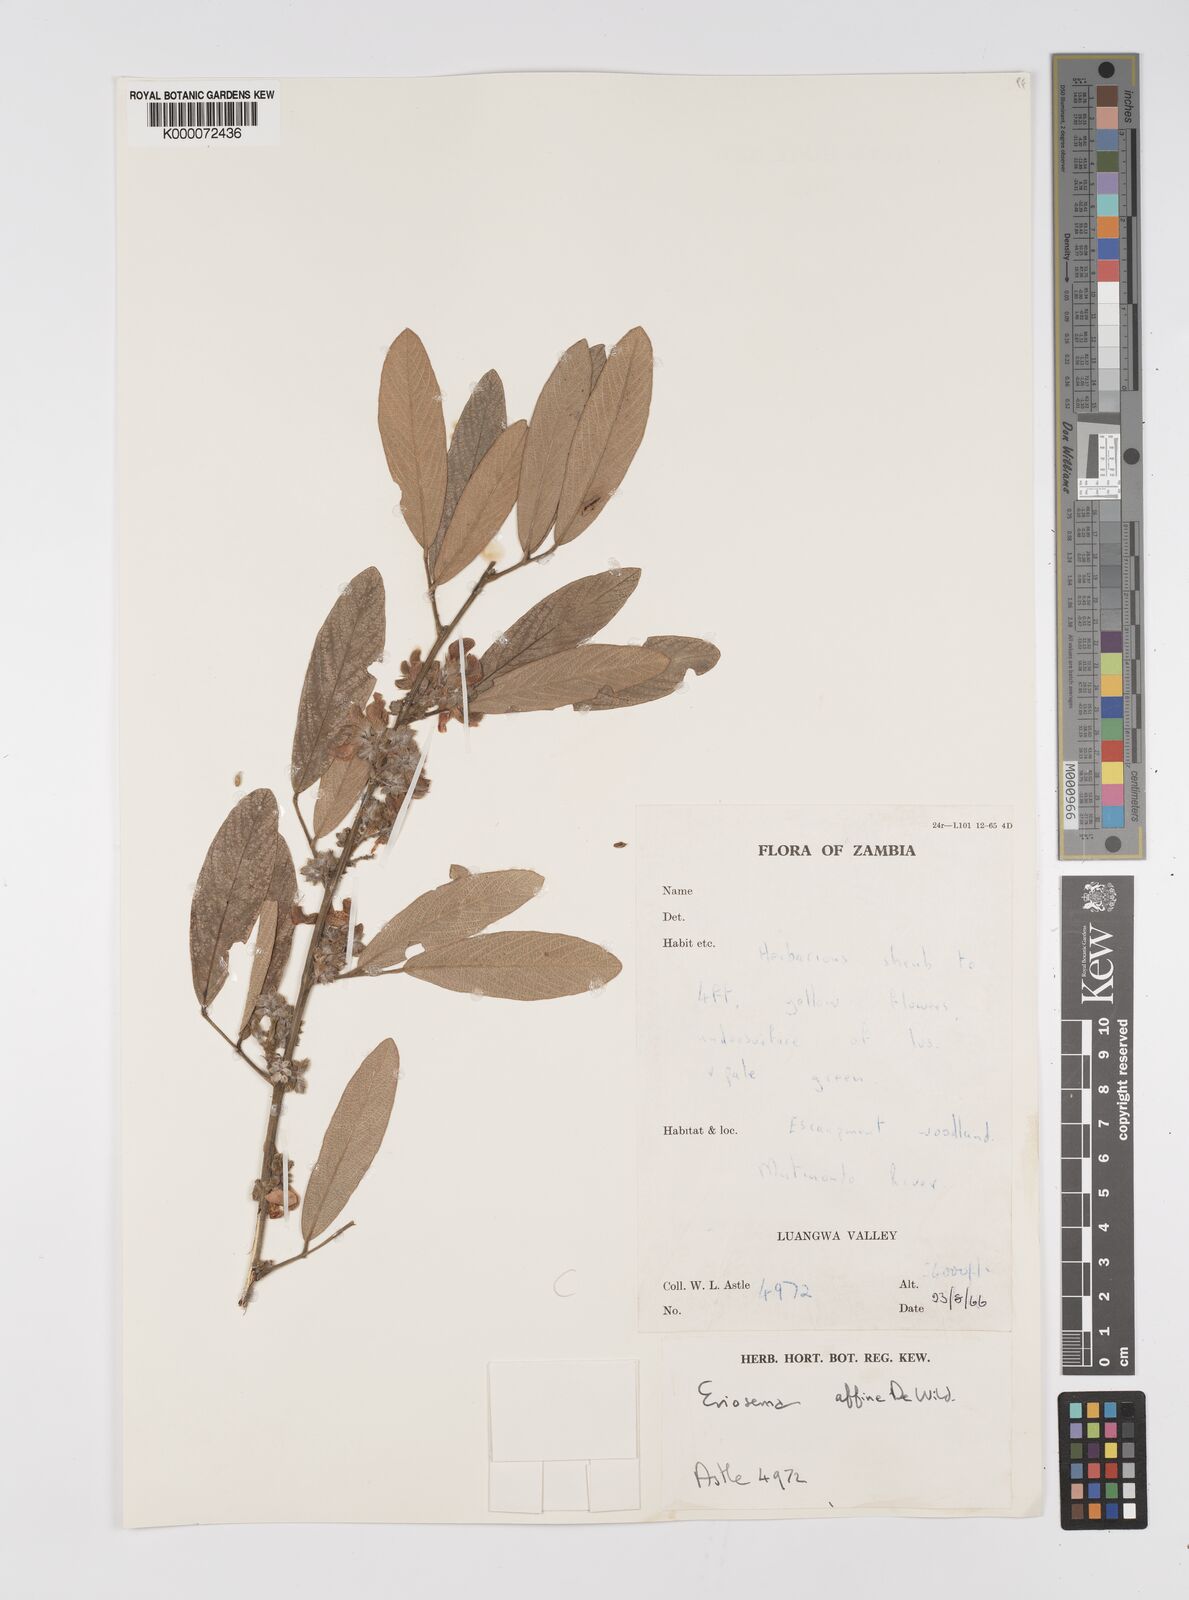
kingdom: Plantae
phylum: Tracheophyta
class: Magnoliopsida
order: Fabales
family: Fabaceae
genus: Eriosema
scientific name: Eriosema affine
